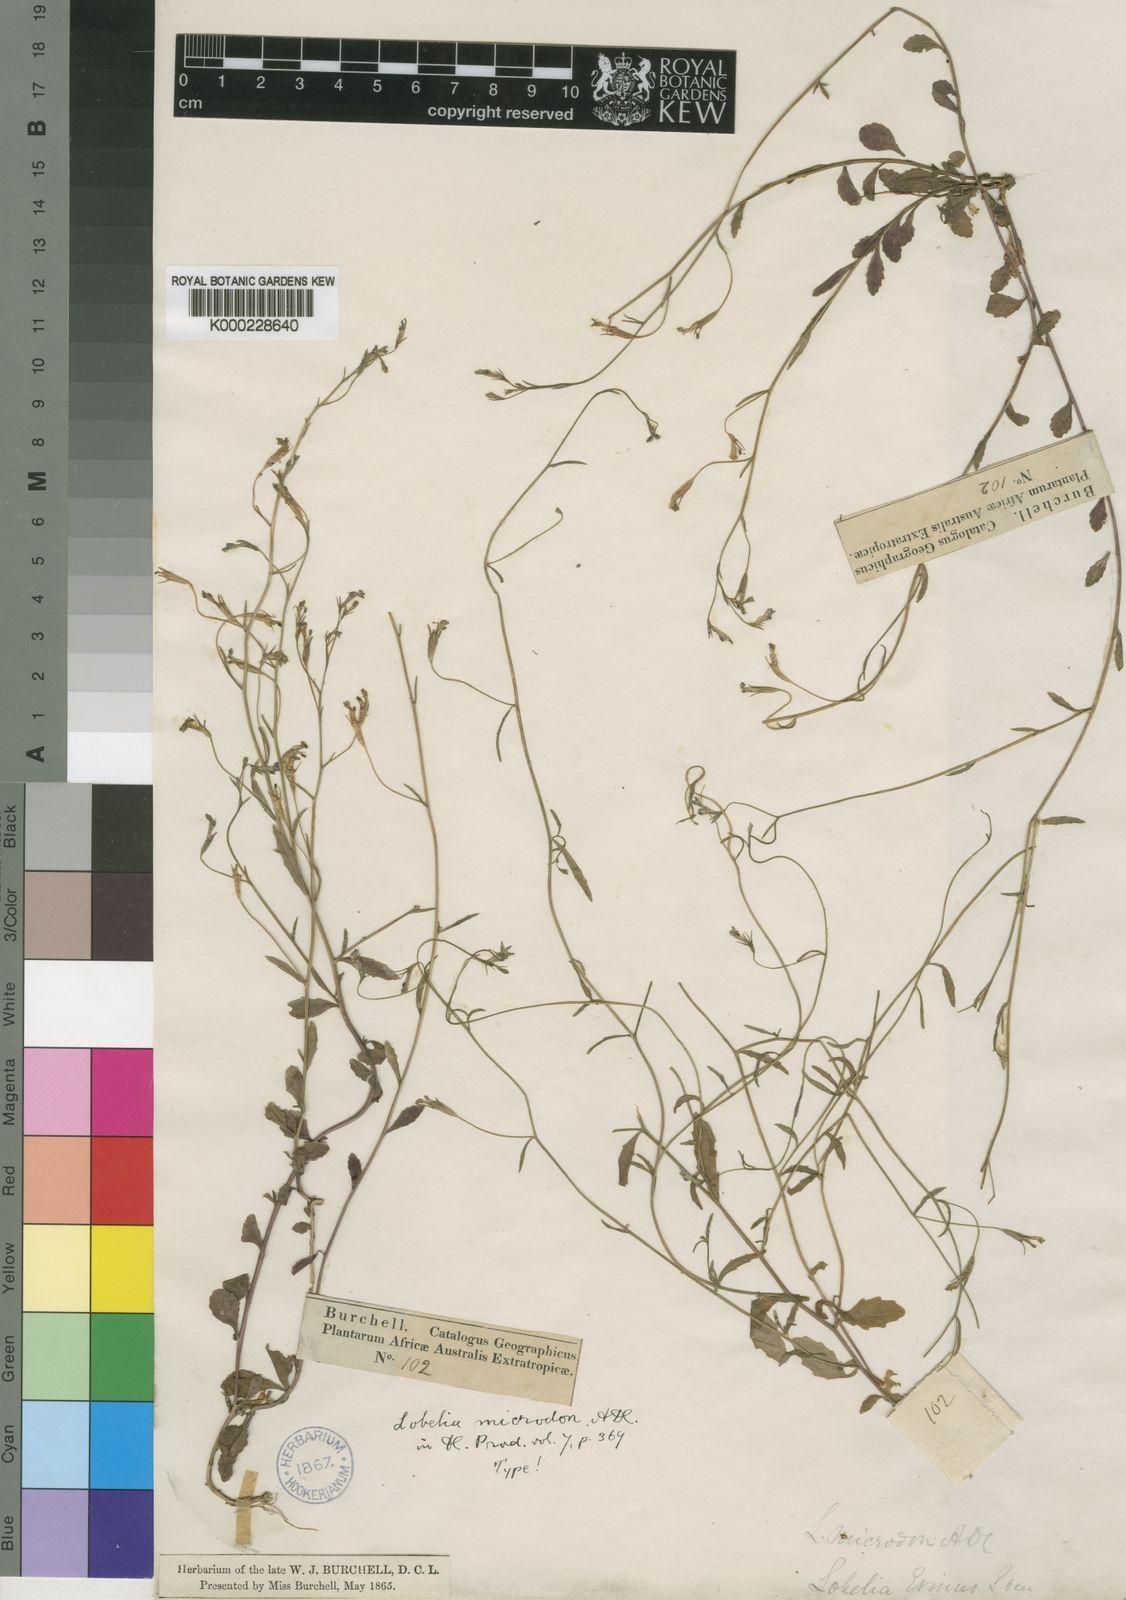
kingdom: Plantae
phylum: Tracheophyta
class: Magnoliopsida
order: Asterales
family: Campanulaceae
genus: Lobelia
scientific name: Lobelia erinus
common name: Edging lobelia
